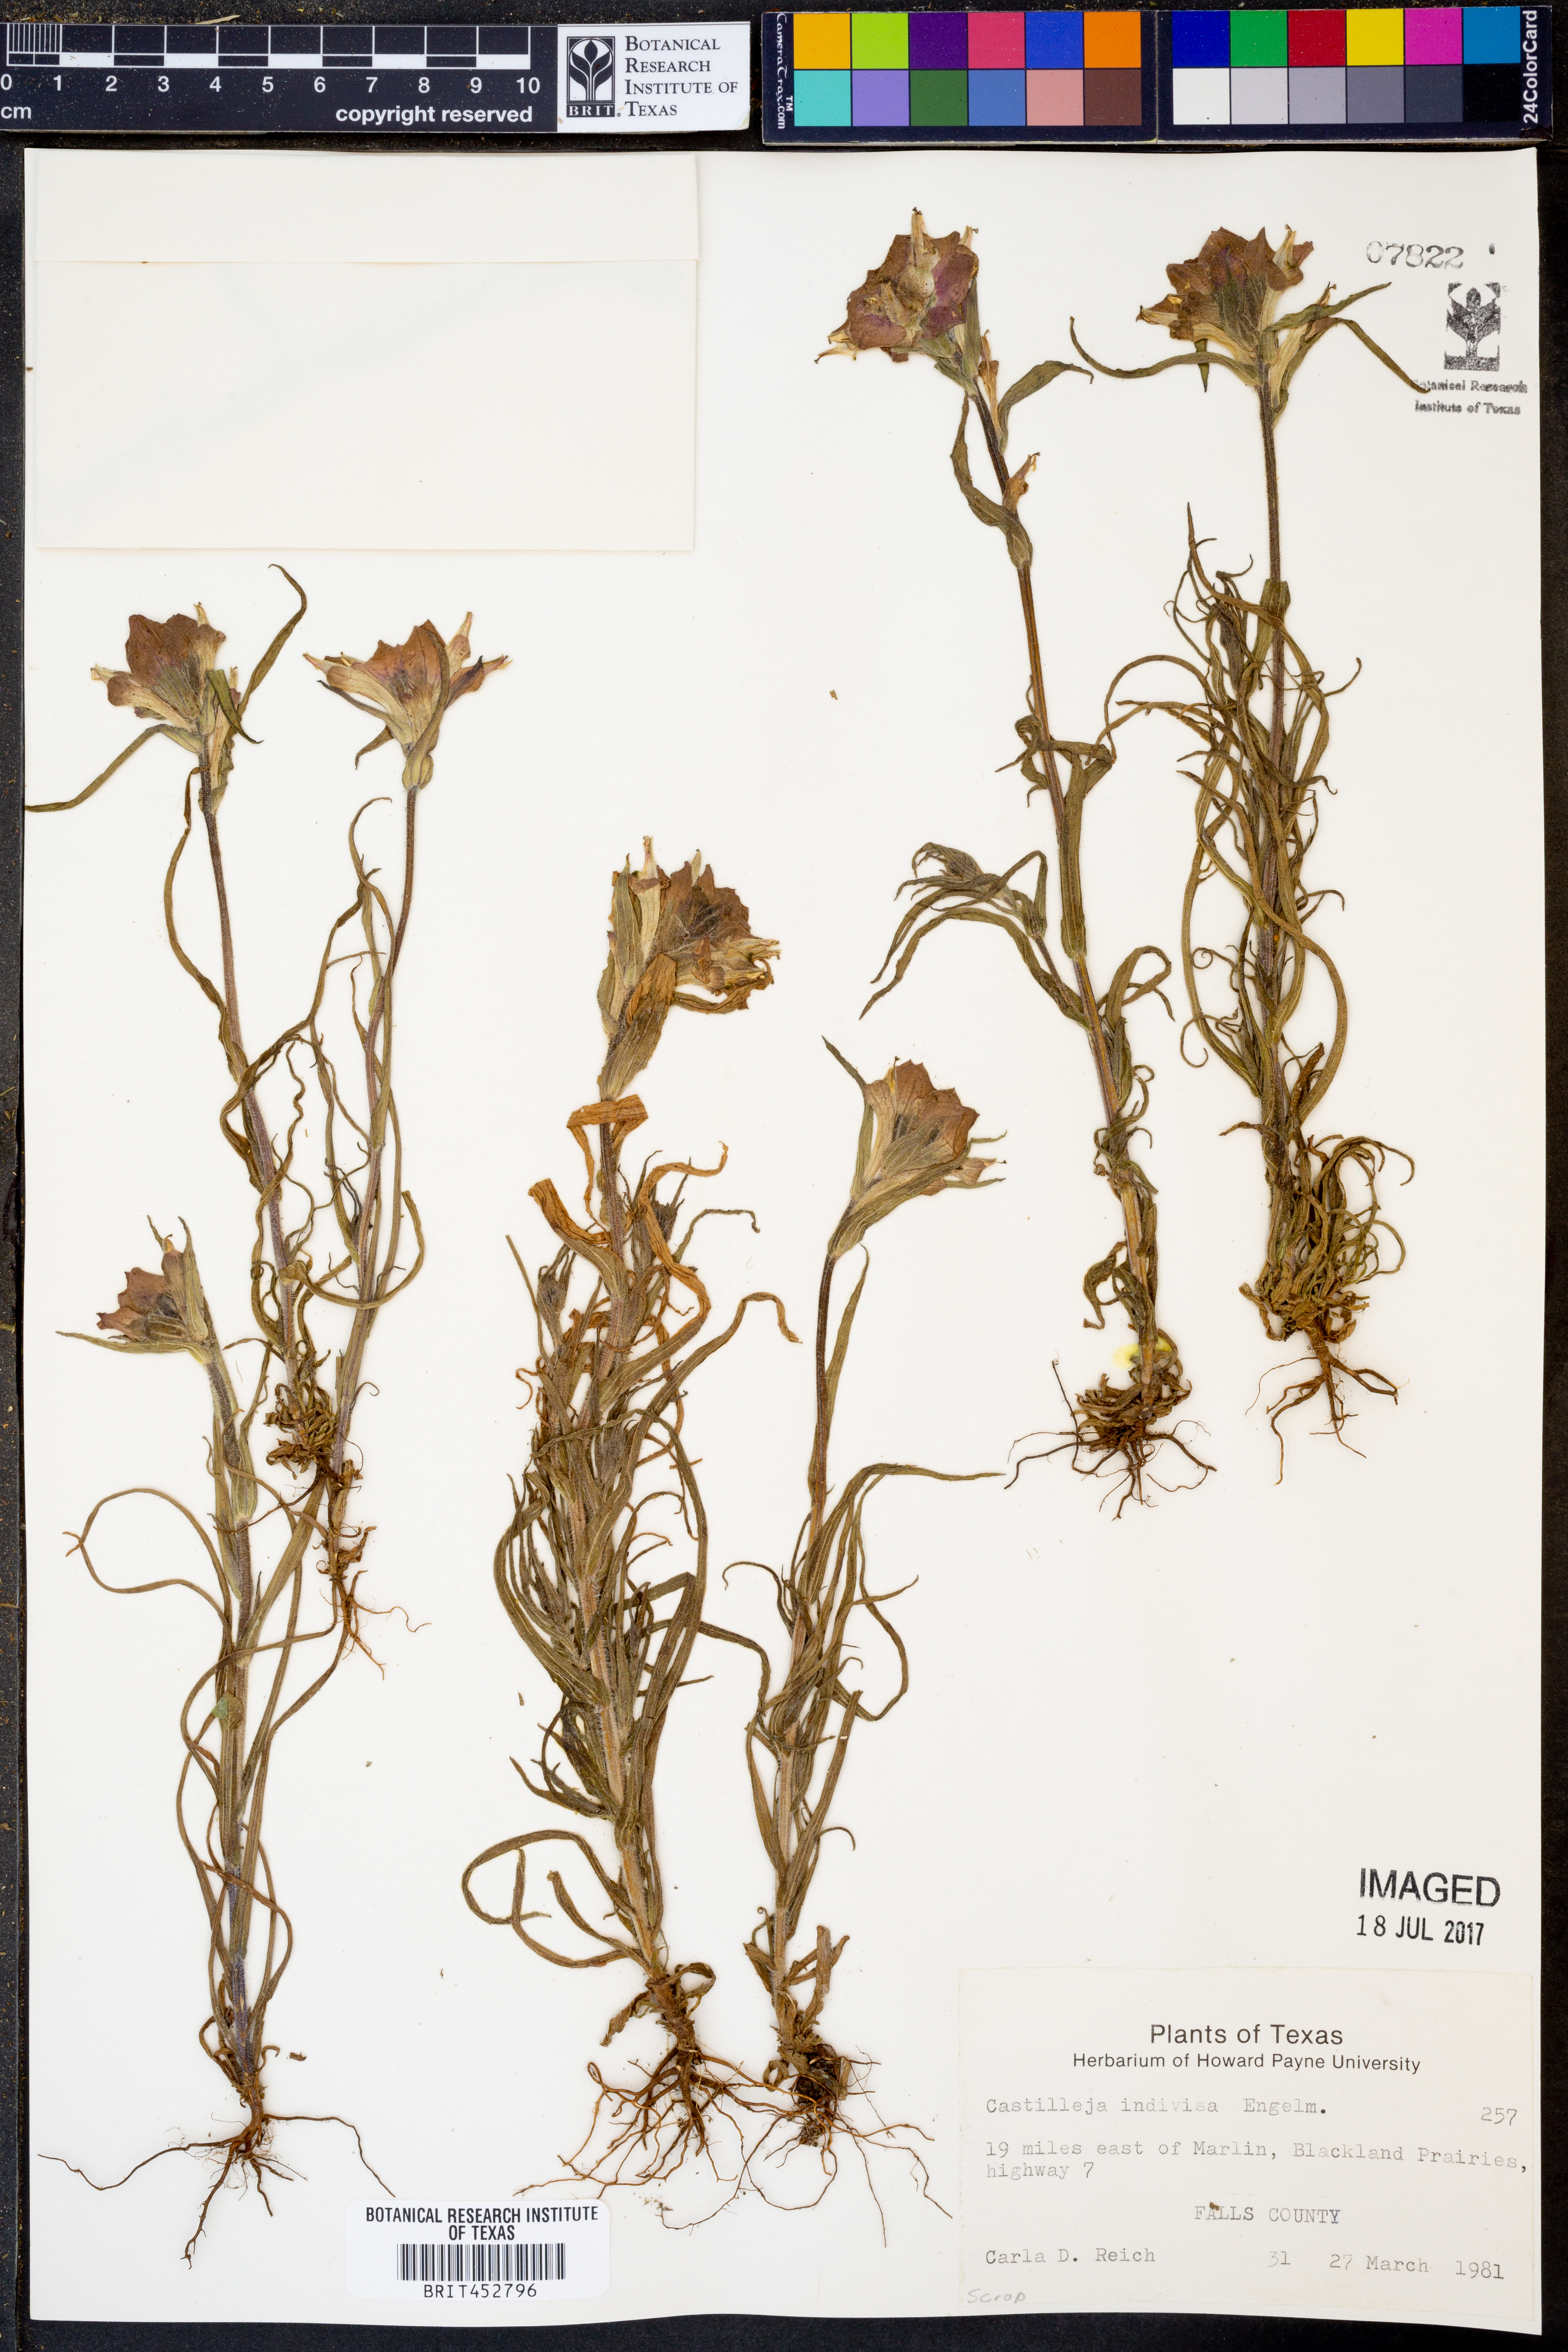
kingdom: Plantae
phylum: Tracheophyta
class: Magnoliopsida
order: Lamiales
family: Orobanchaceae
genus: Castilleja
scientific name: Castilleja indivisa
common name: Texas paintbrush
